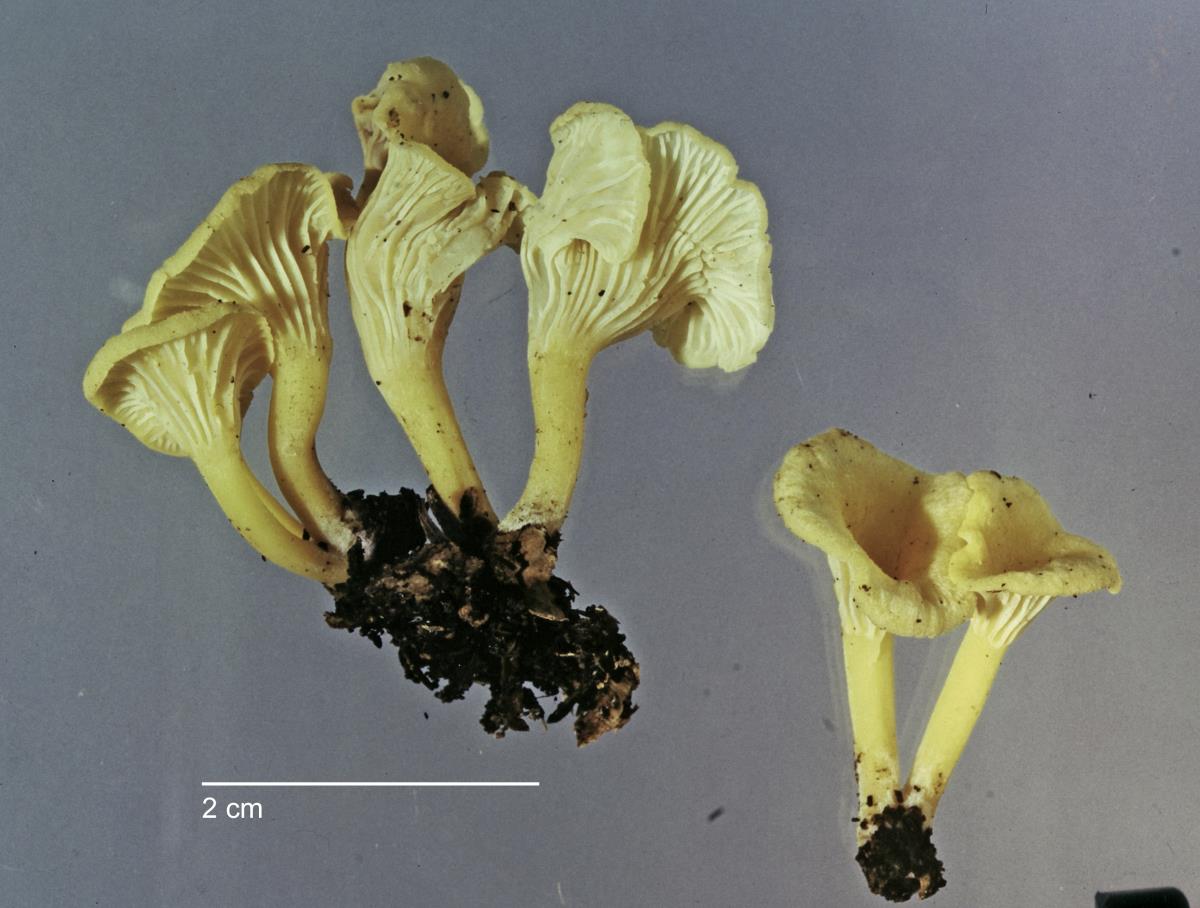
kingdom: Fungi
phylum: Basidiomycota
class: Agaricomycetes
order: Cantharellales
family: Hydnaceae
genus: Cantharellus
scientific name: Cantharellus wellingtonensis
